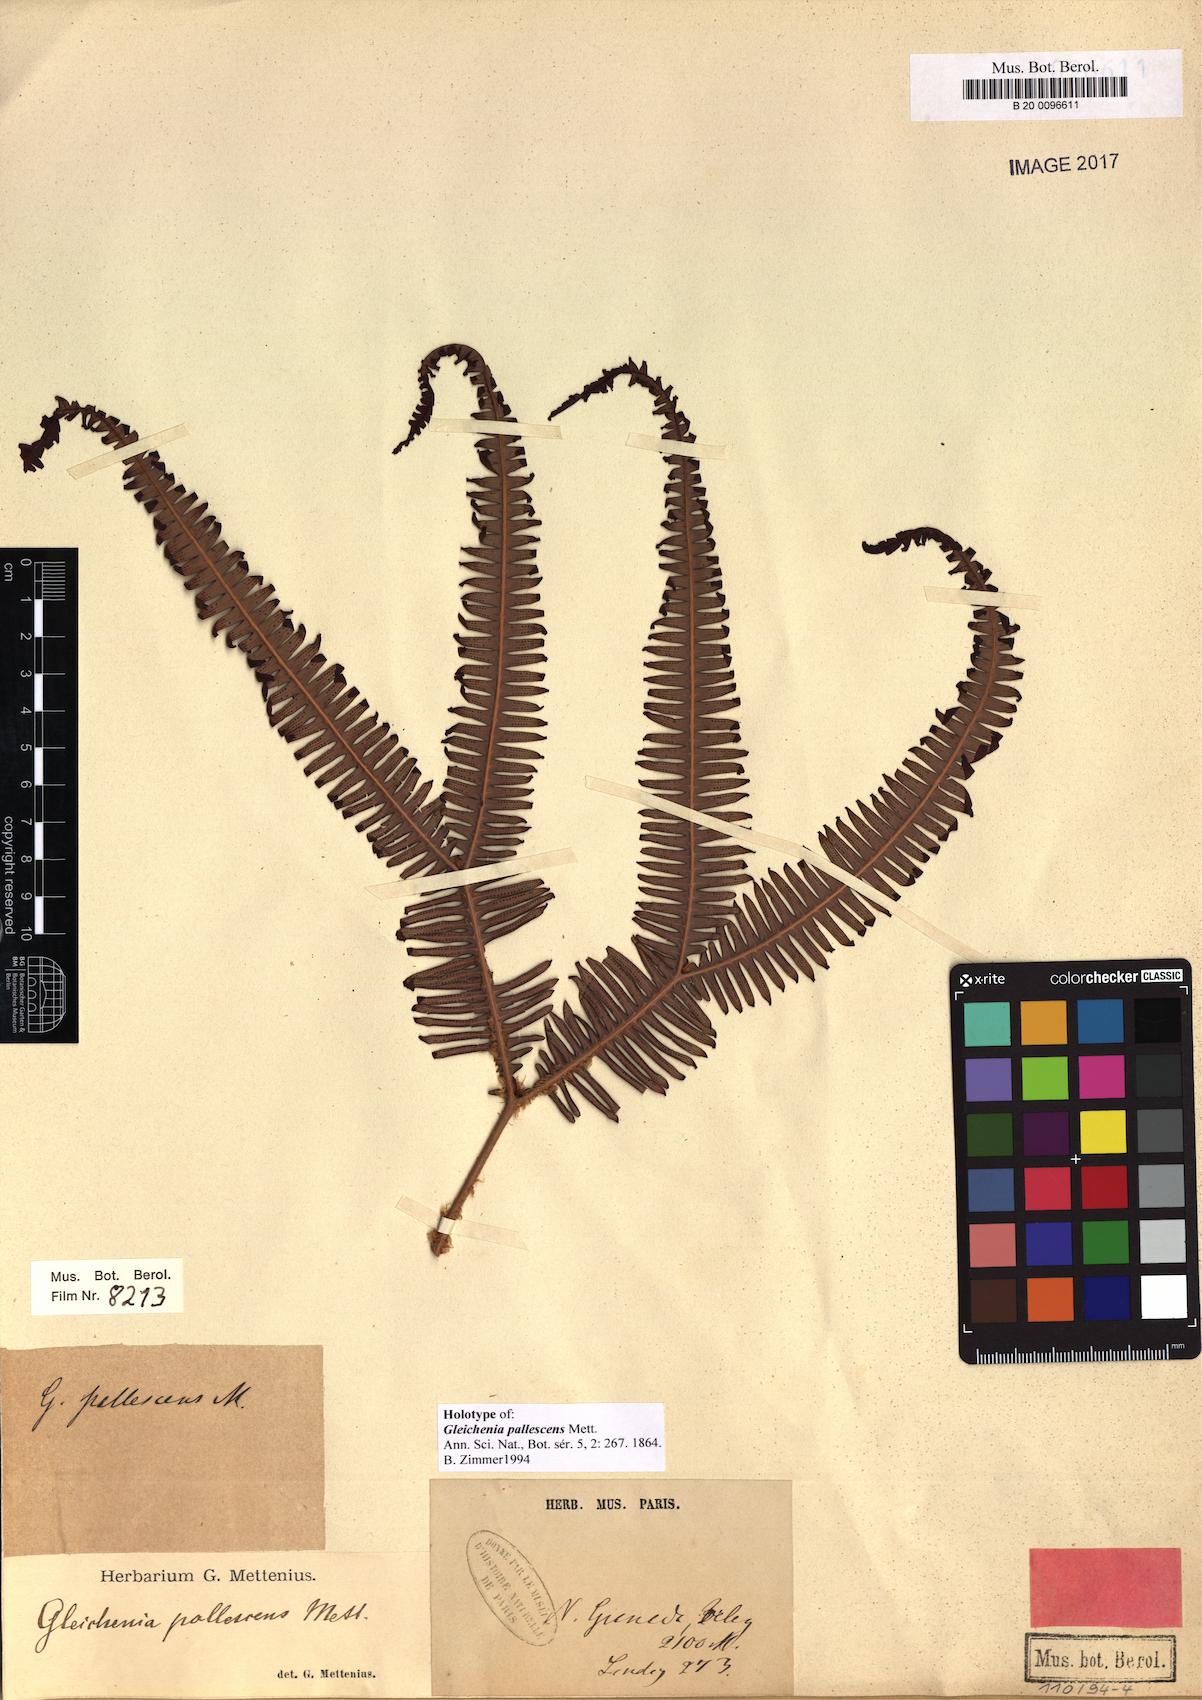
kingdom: Plantae
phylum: Tracheophyta
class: Polypodiopsida
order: Gleicheniales
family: Gleicheniaceae
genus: Sticherus
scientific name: Sticherus pallescens
